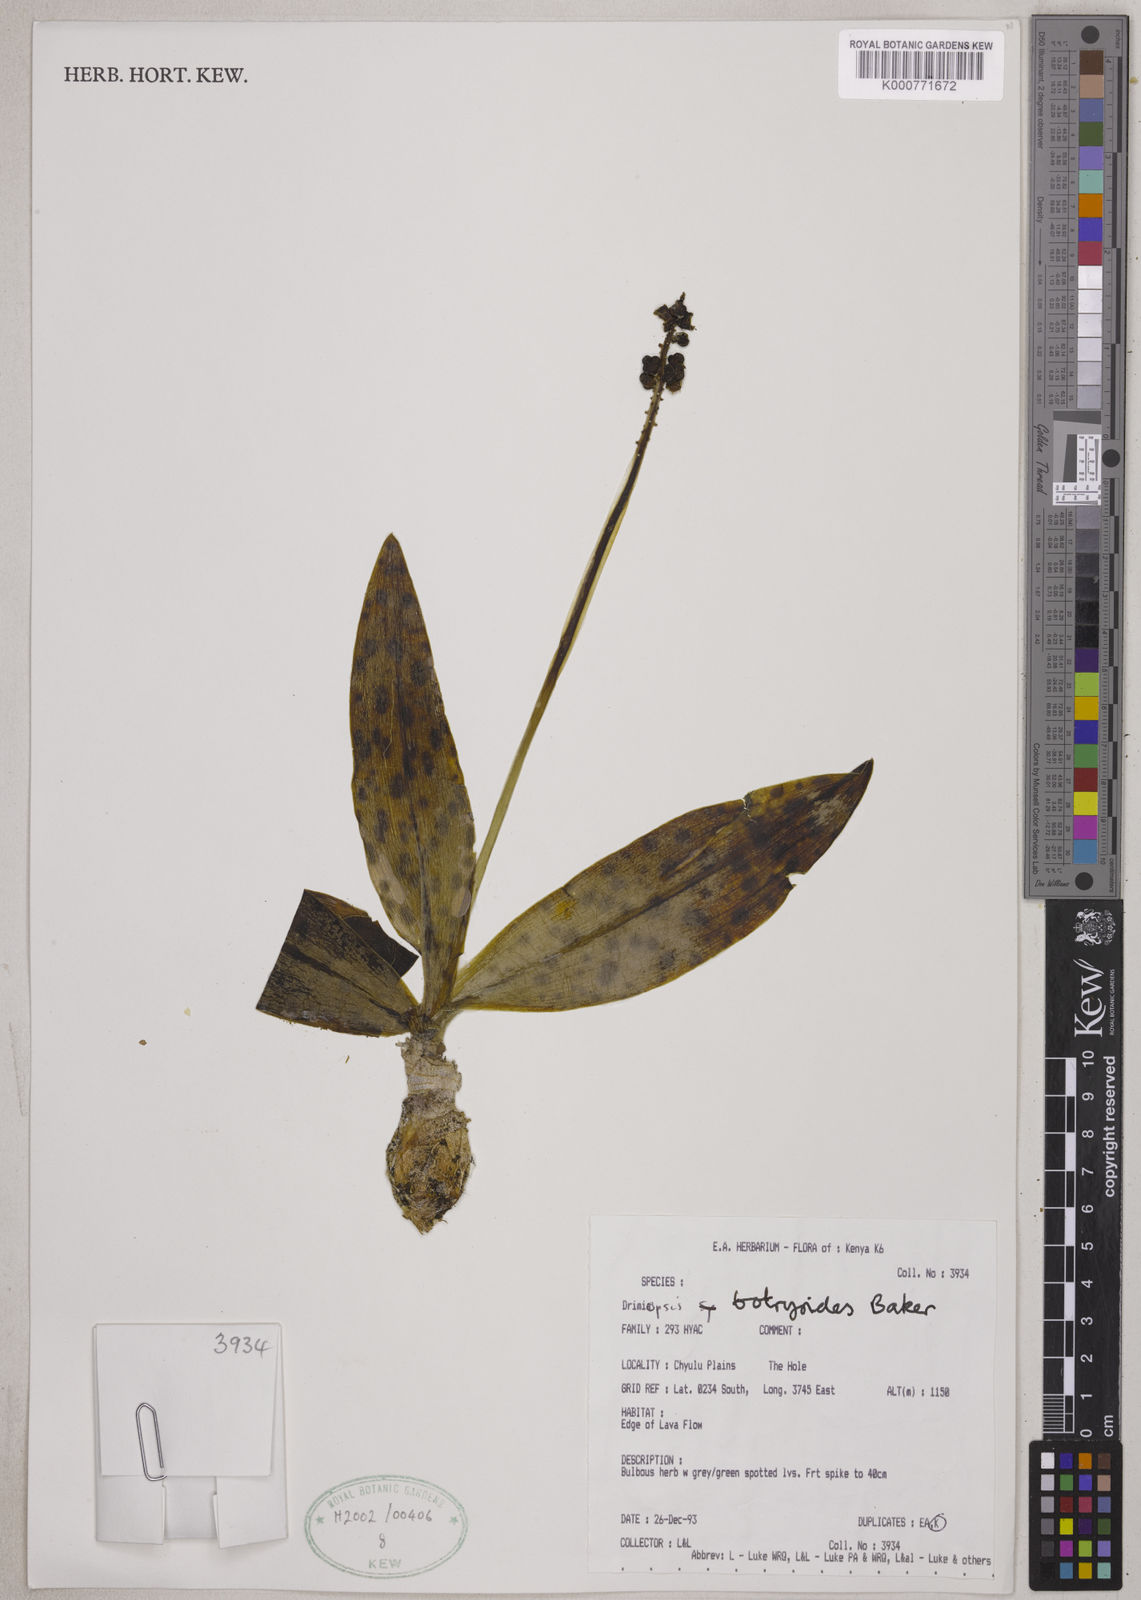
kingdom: Plantae
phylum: Tracheophyta
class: Liliopsida
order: Asparagales
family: Asparagaceae
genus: Drimiopsis
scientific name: Drimiopsis botryoides
